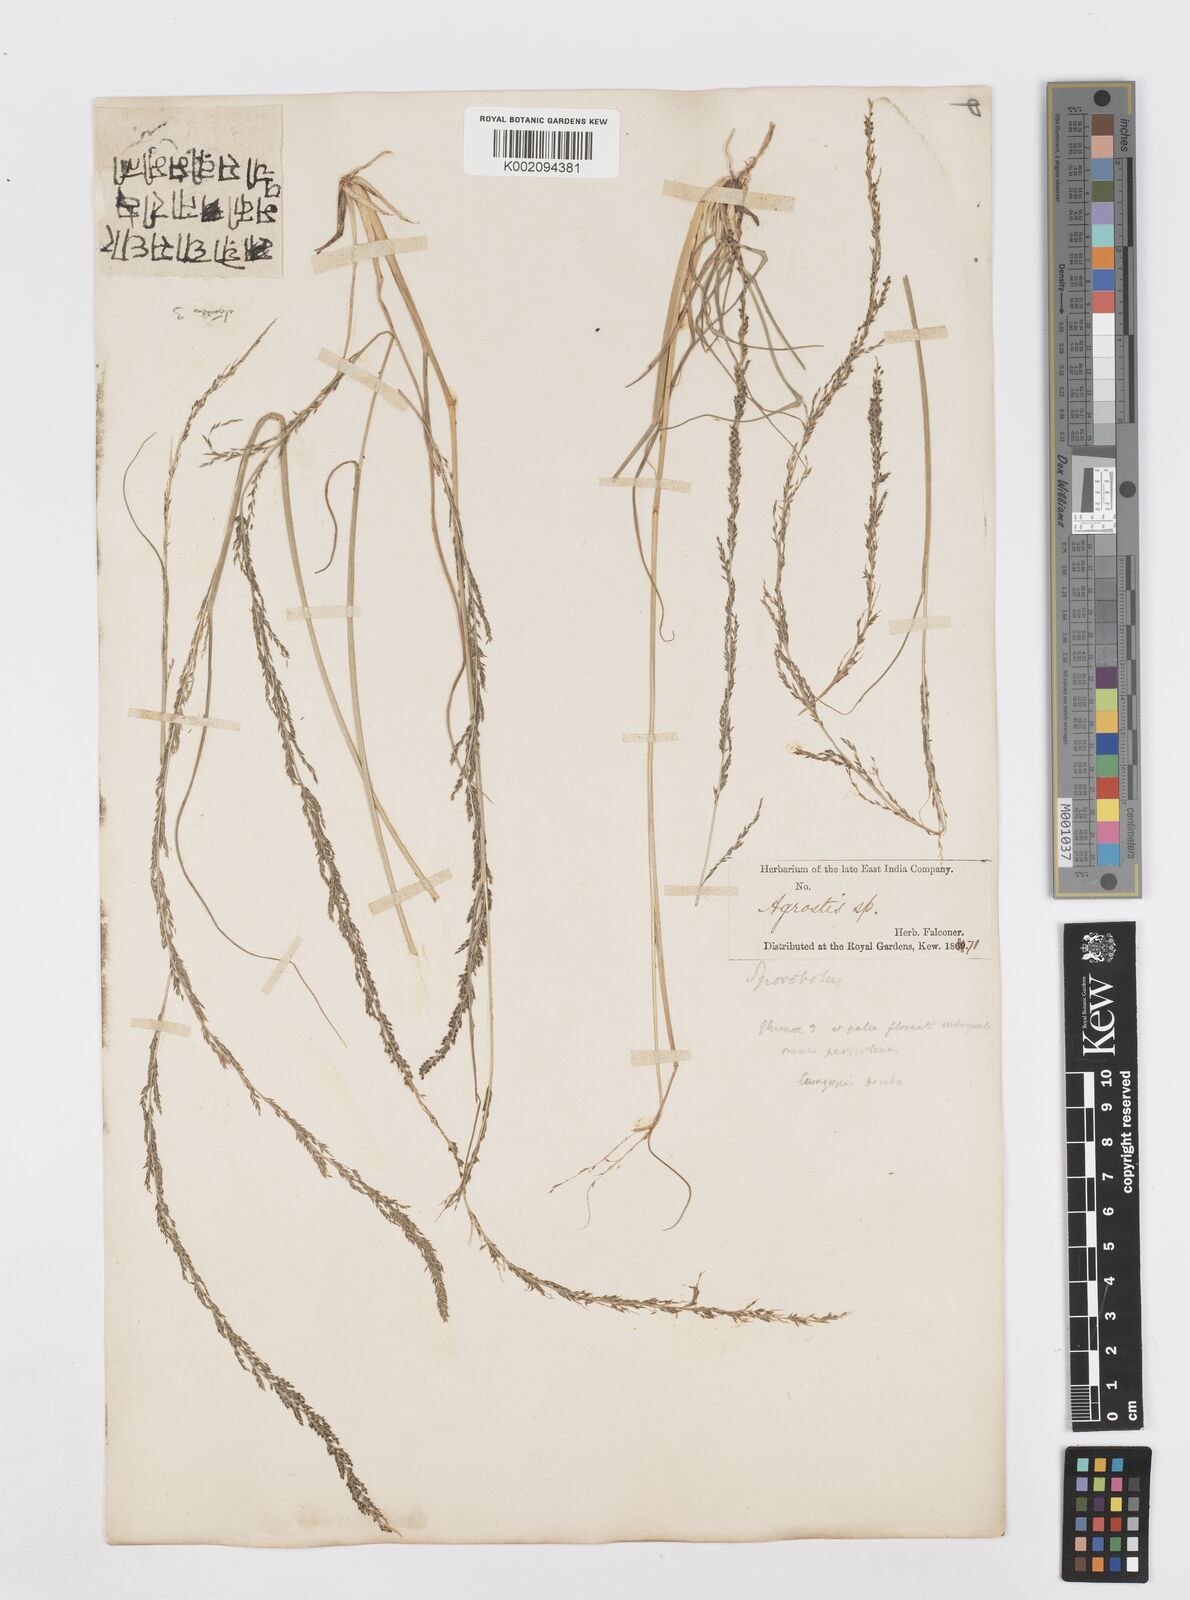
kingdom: Plantae
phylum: Tracheophyta
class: Liliopsida
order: Poales
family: Poaceae
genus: Sporobolus
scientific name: Sporobolus fertilis
